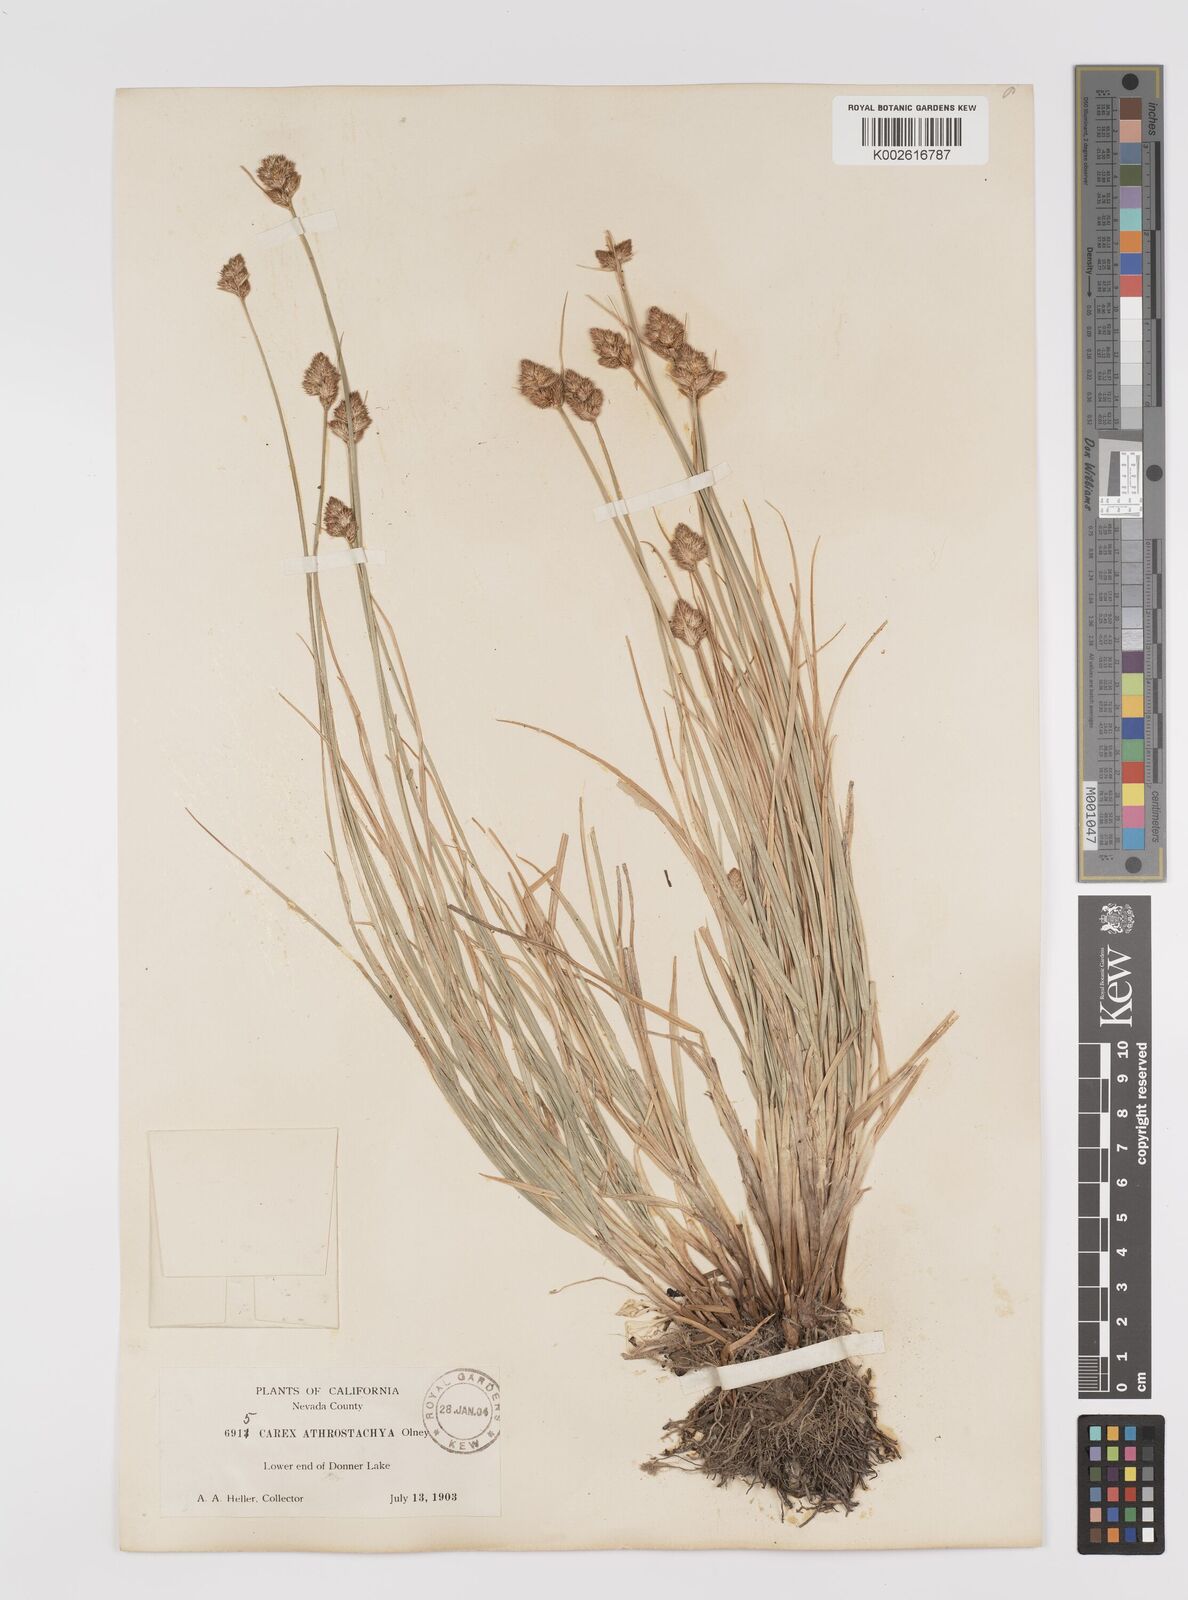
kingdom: Plantae
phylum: Tracheophyta
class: Liliopsida
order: Poales
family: Cyperaceae
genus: Carex
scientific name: Carex athrostachya
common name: Slenderbeak sedge
